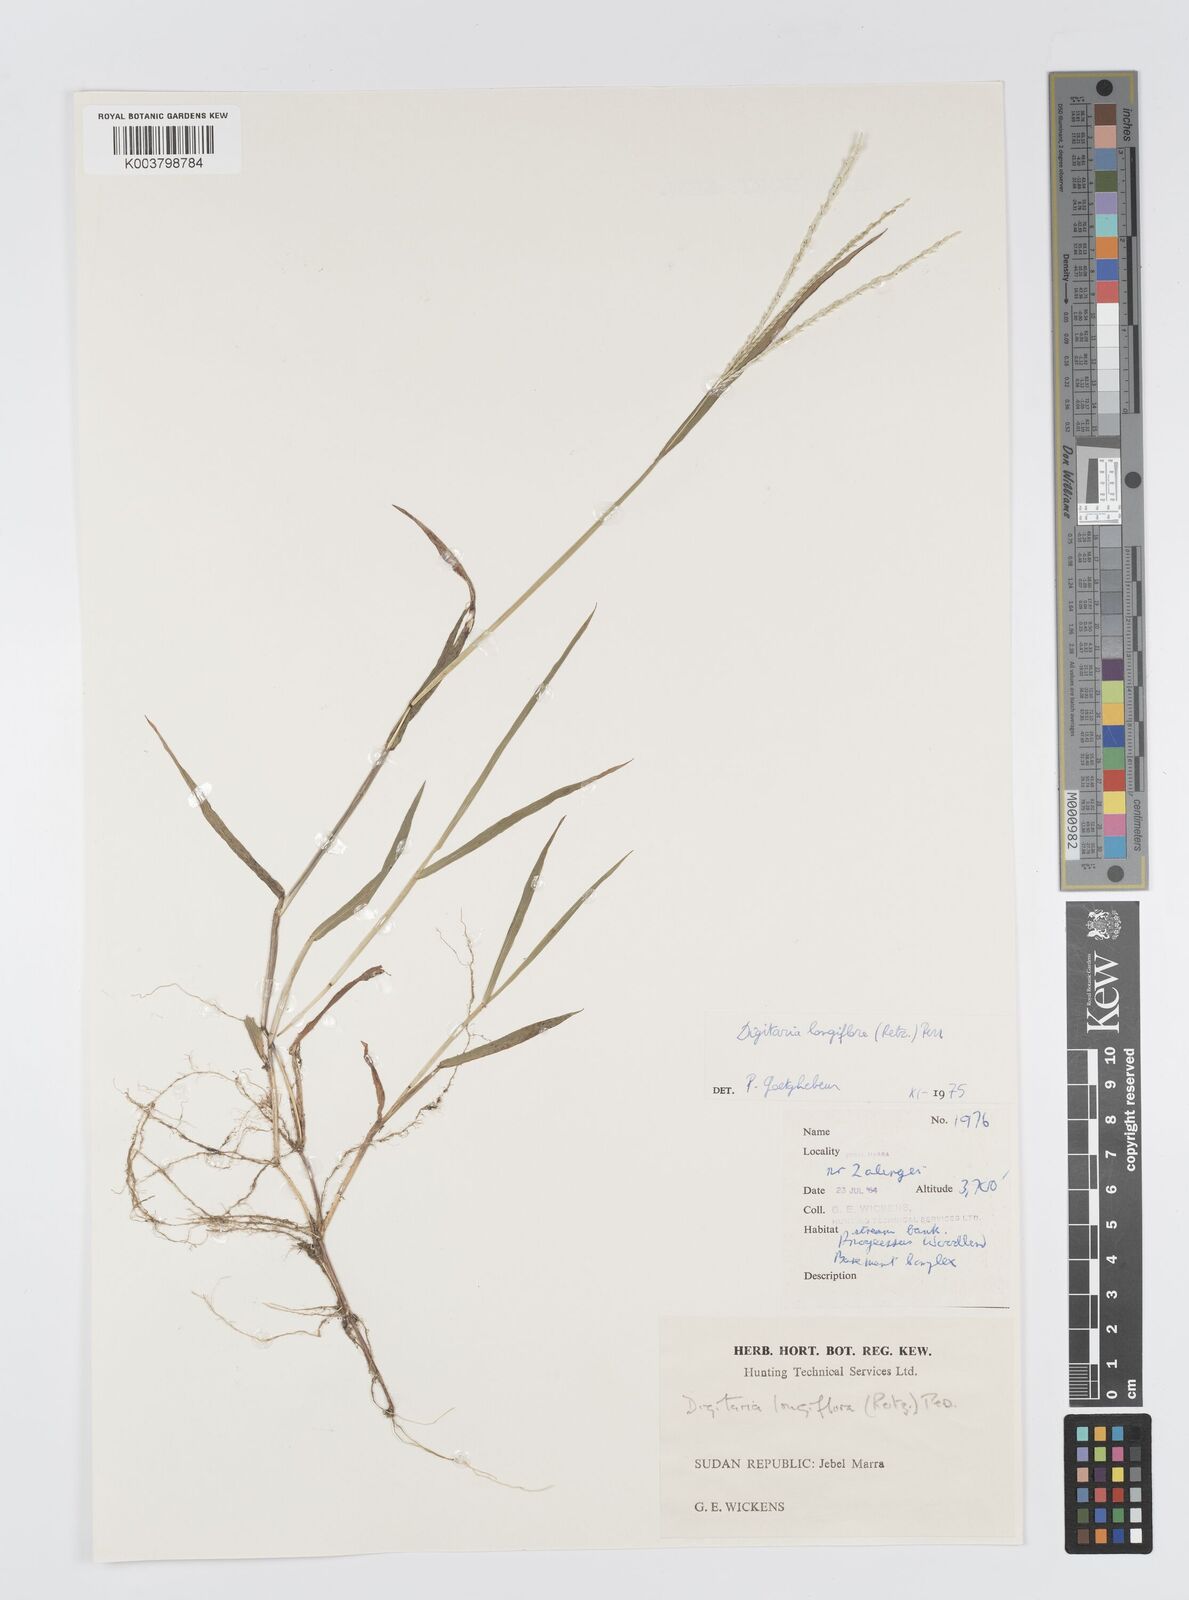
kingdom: Plantae
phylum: Tracheophyta
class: Liliopsida
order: Poales
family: Poaceae
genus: Digitaria
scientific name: Digitaria longiflora
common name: Wire crabgrass
